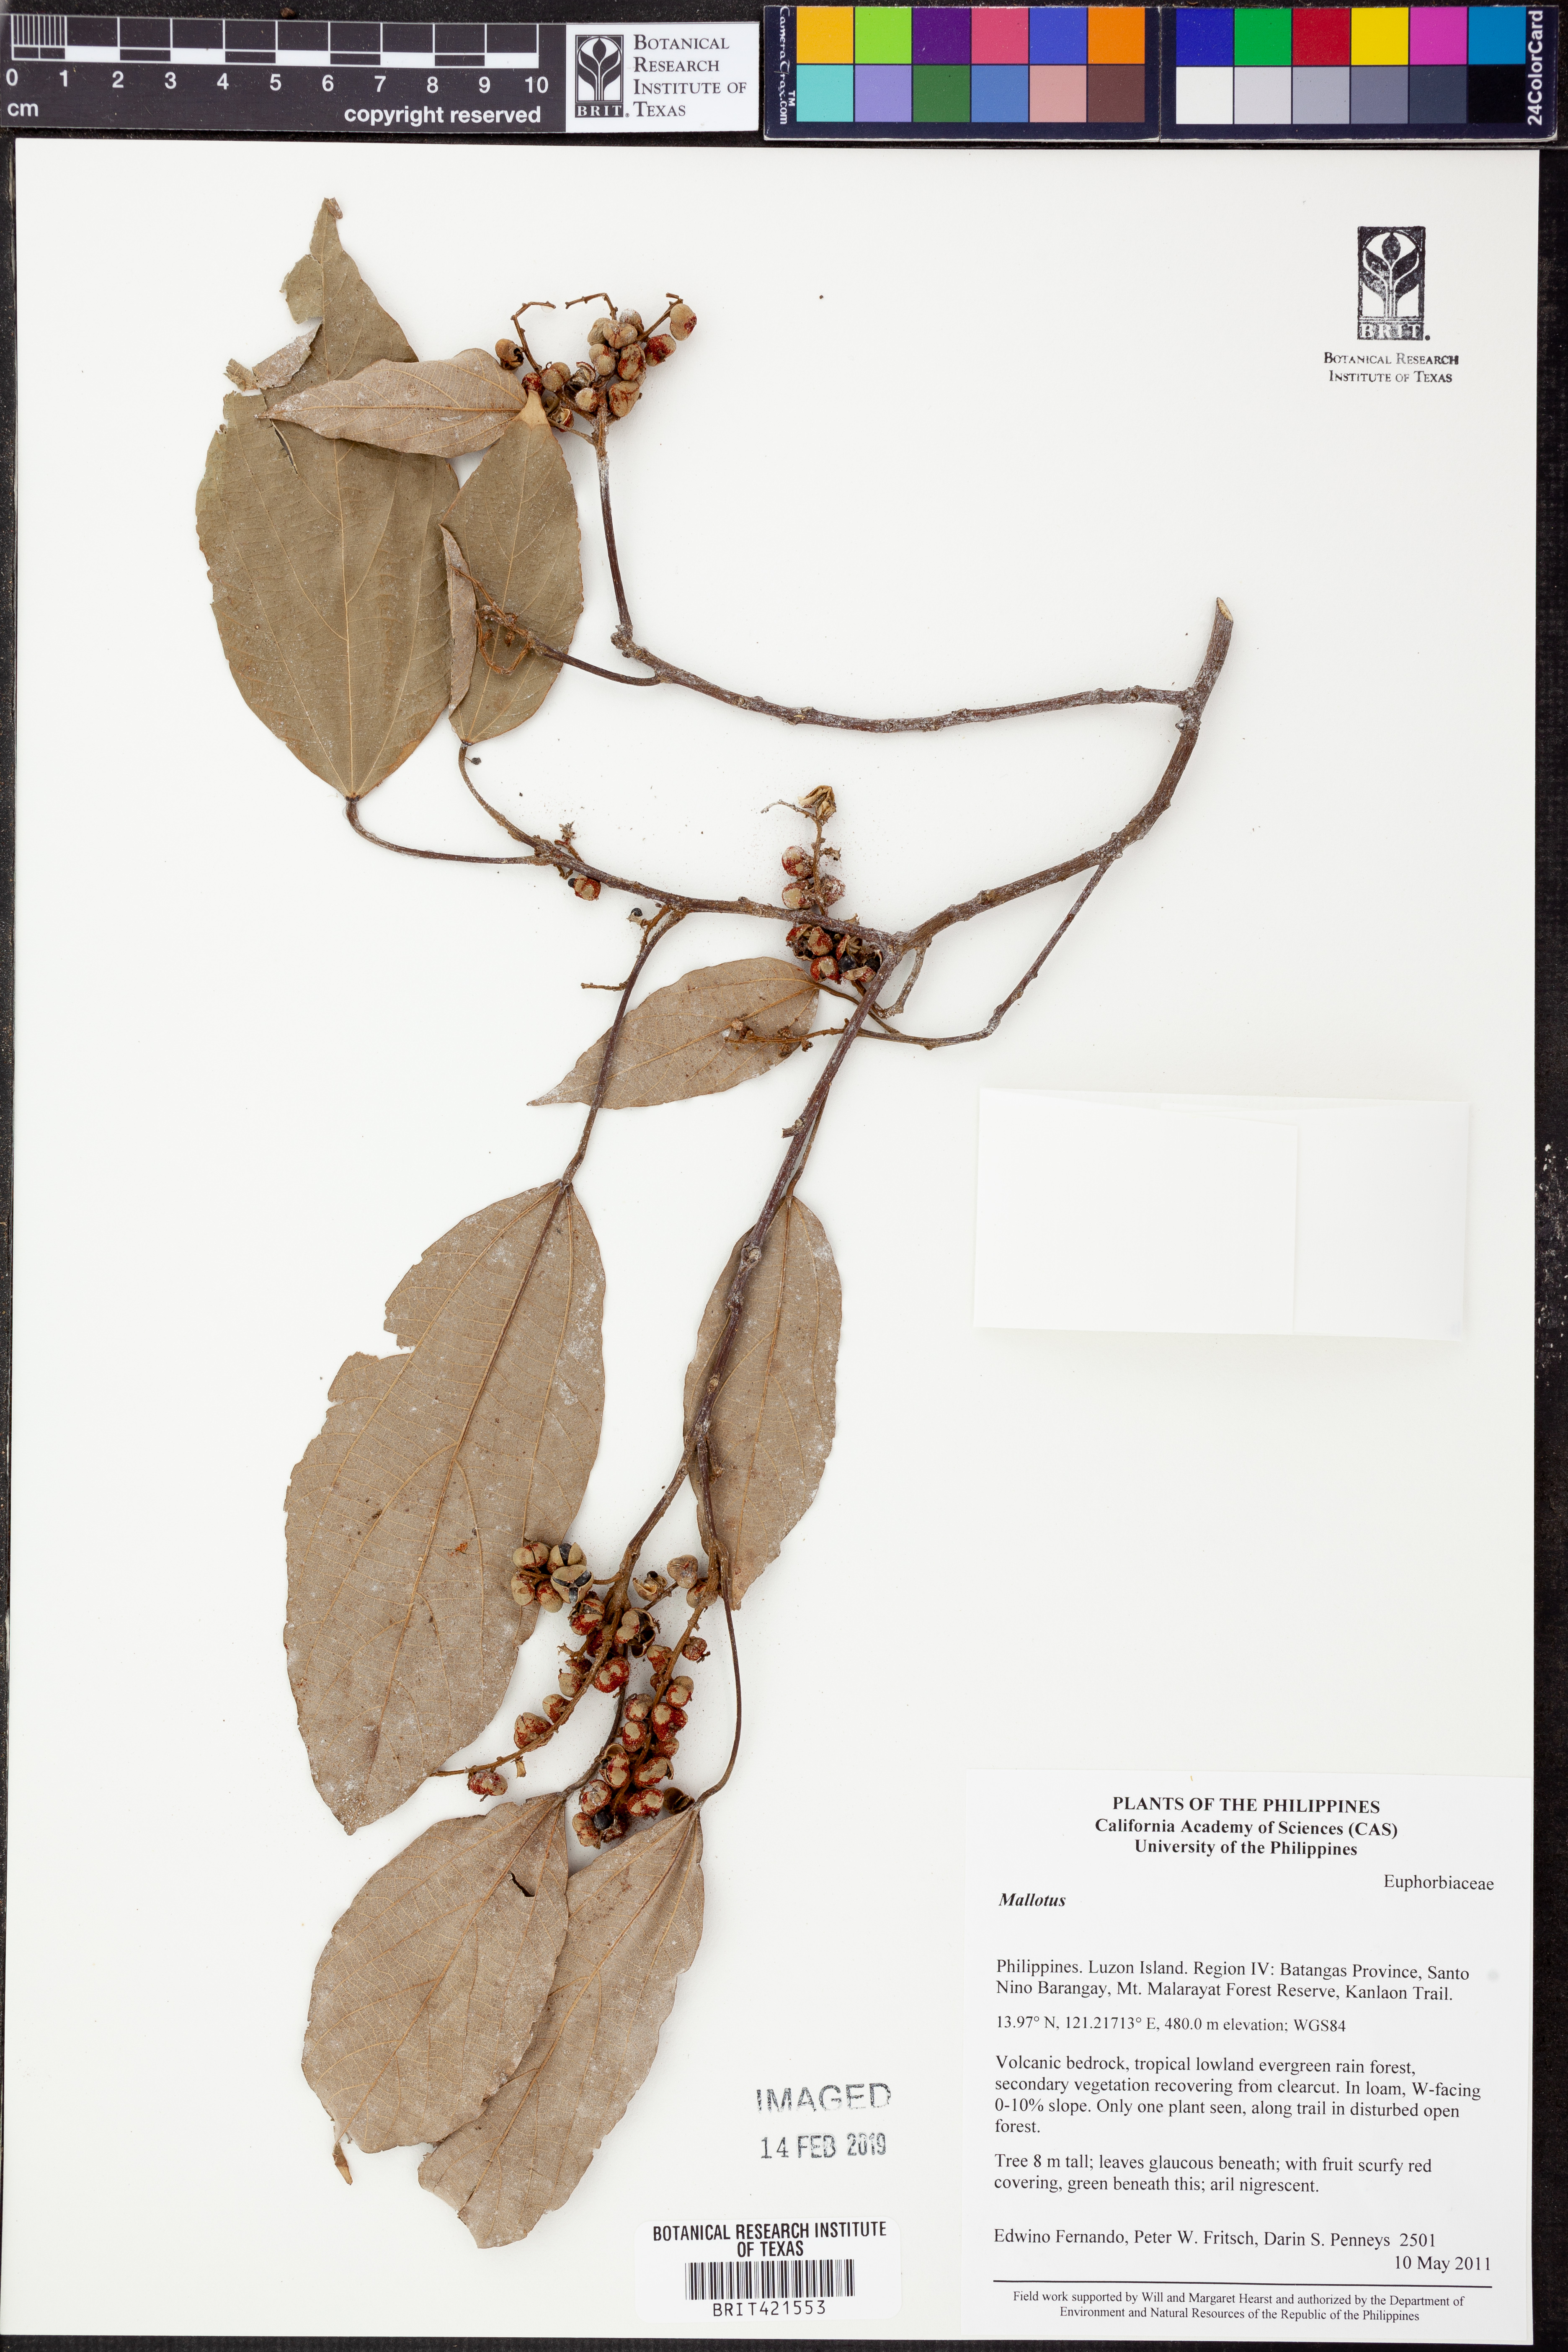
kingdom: Plantae
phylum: Tracheophyta
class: Magnoliopsida
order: Malpighiales
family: Euphorbiaceae
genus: Mallotus
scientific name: Mallotus
